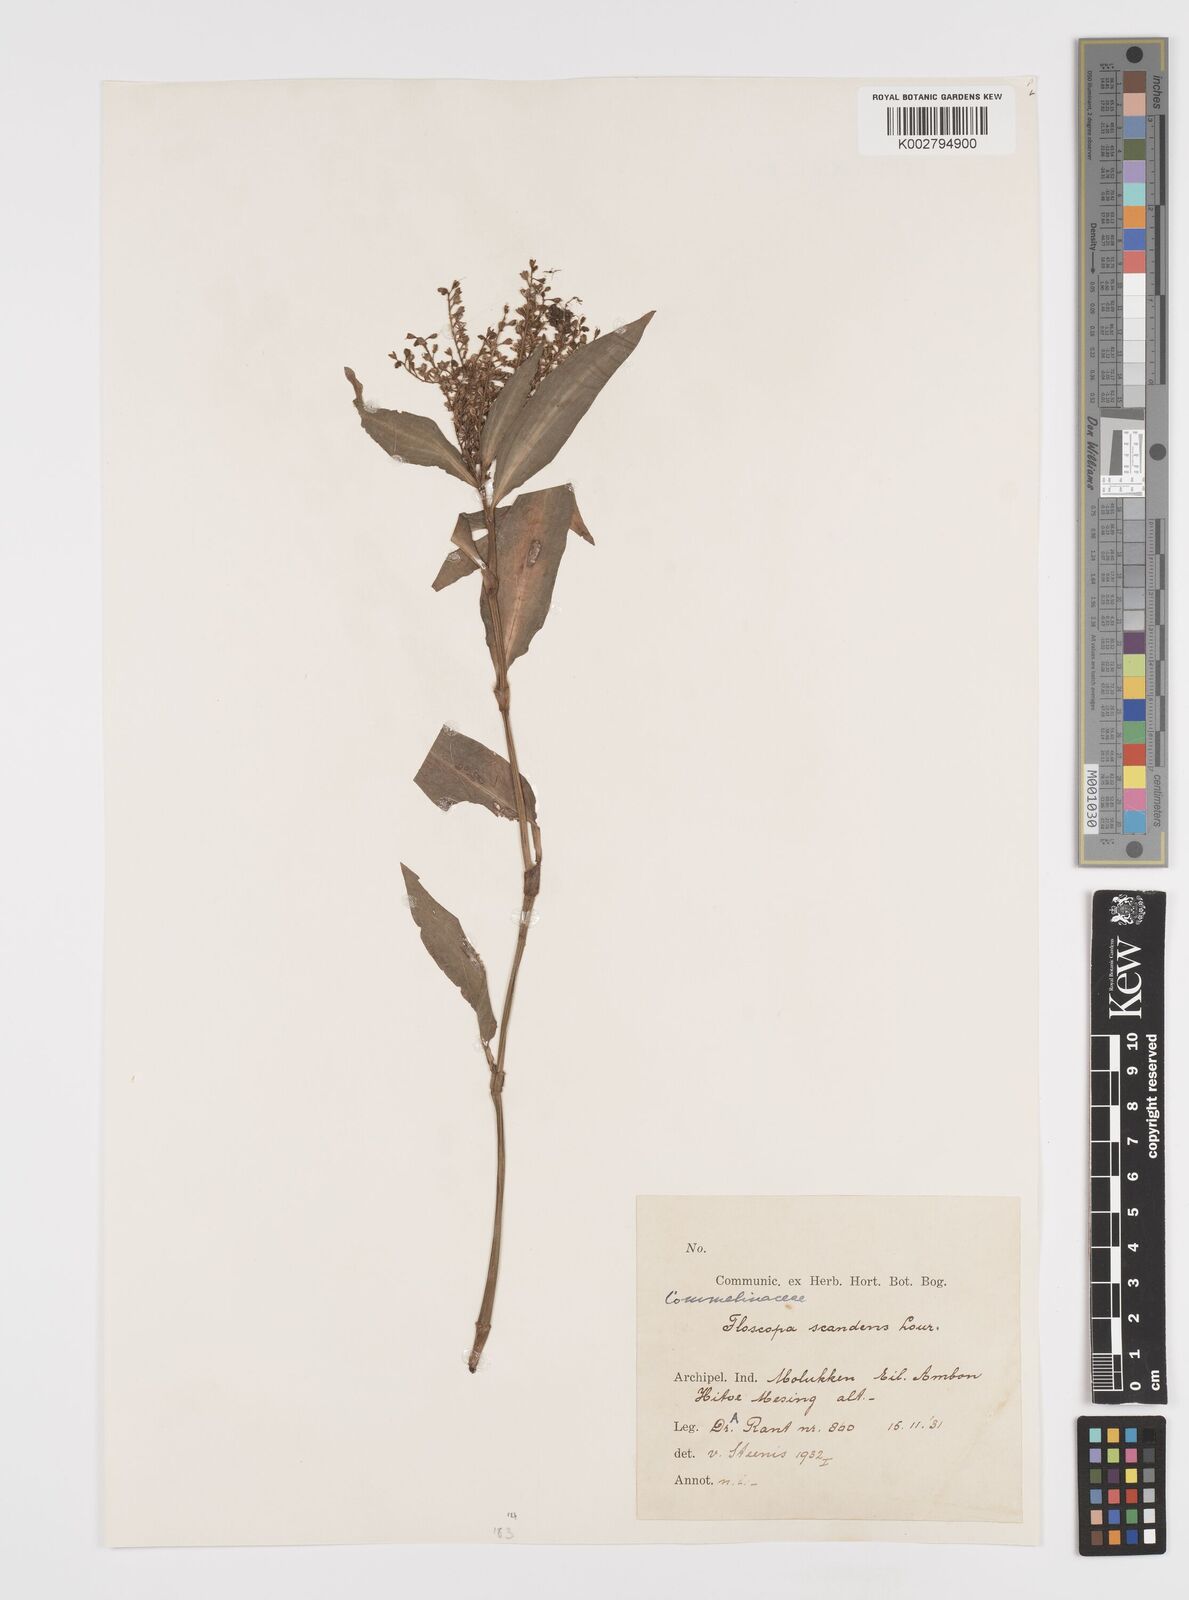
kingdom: Plantae
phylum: Tracheophyta
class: Liliopsida
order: Commelinales
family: Commelinaceae
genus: Floscopa
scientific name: Floscopa scandens
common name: Climbing flower cup
